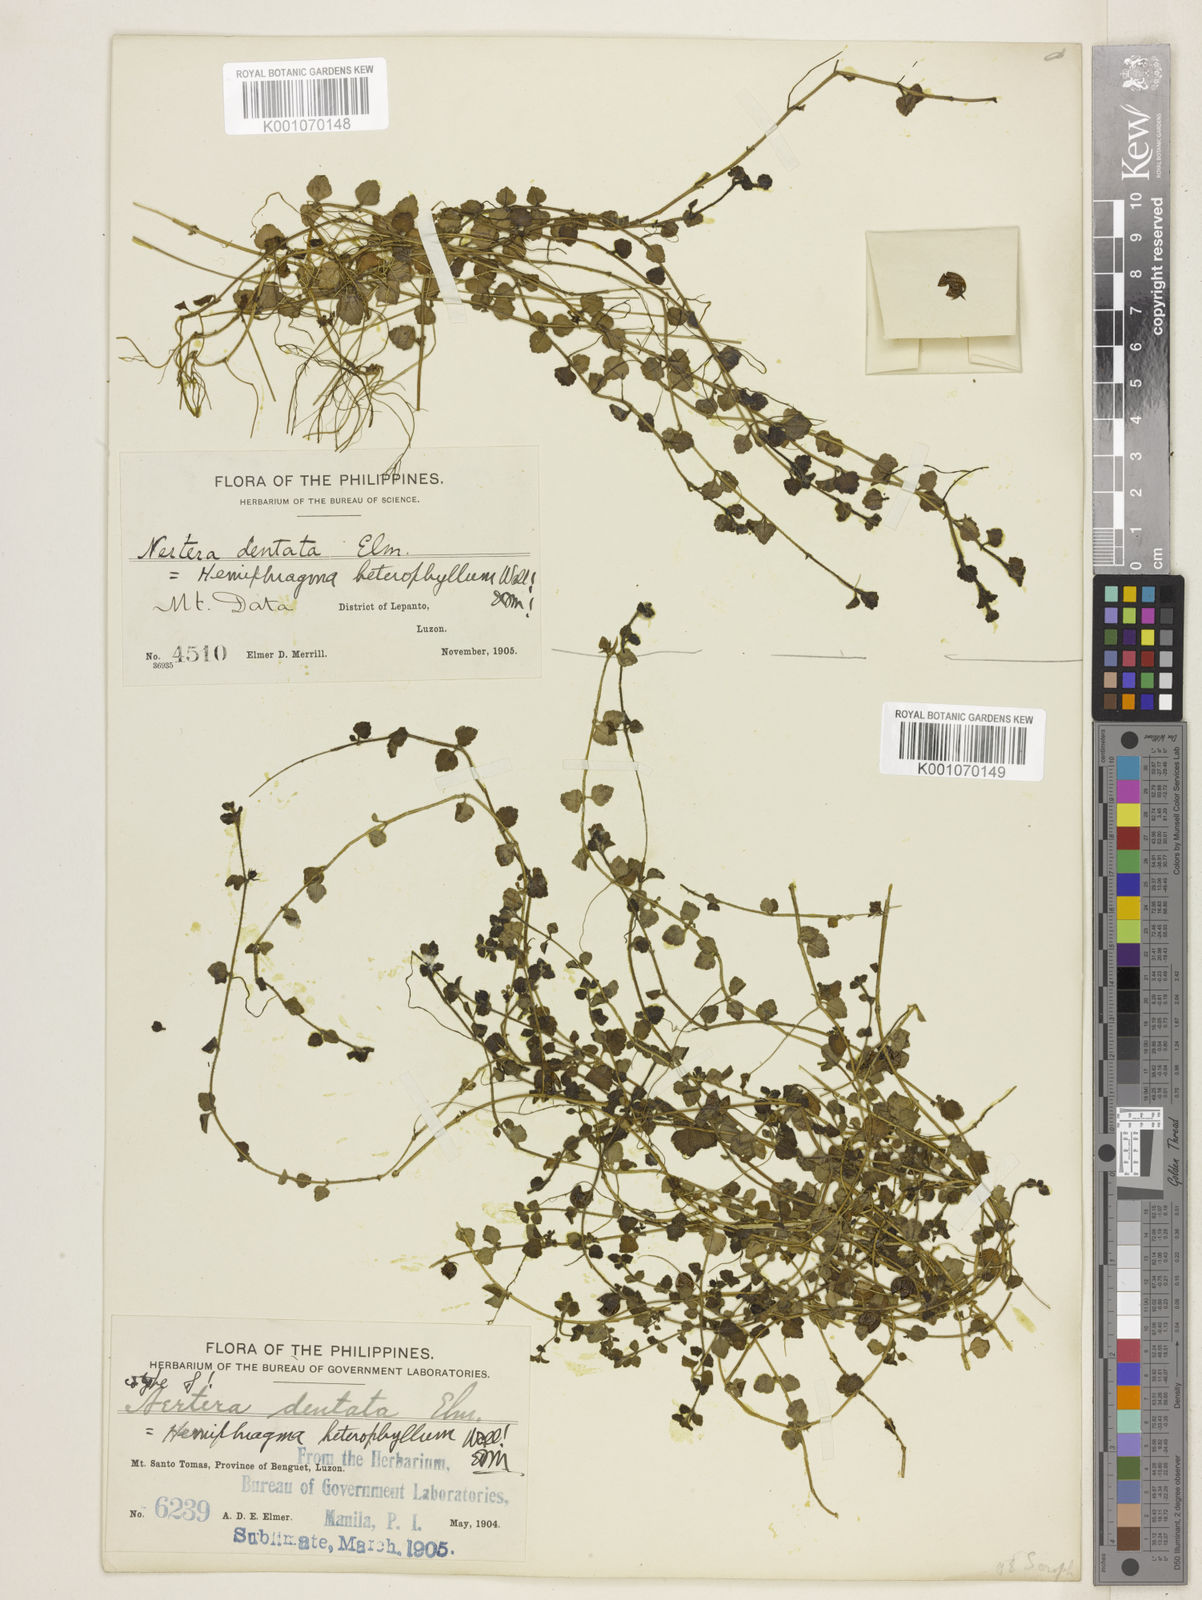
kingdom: Plantae
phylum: Tracheophyta
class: Magnoliopsida
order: Lamiales
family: Plantaginaceae
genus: Hemiphragma
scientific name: Hemiphragma heterophyllum
